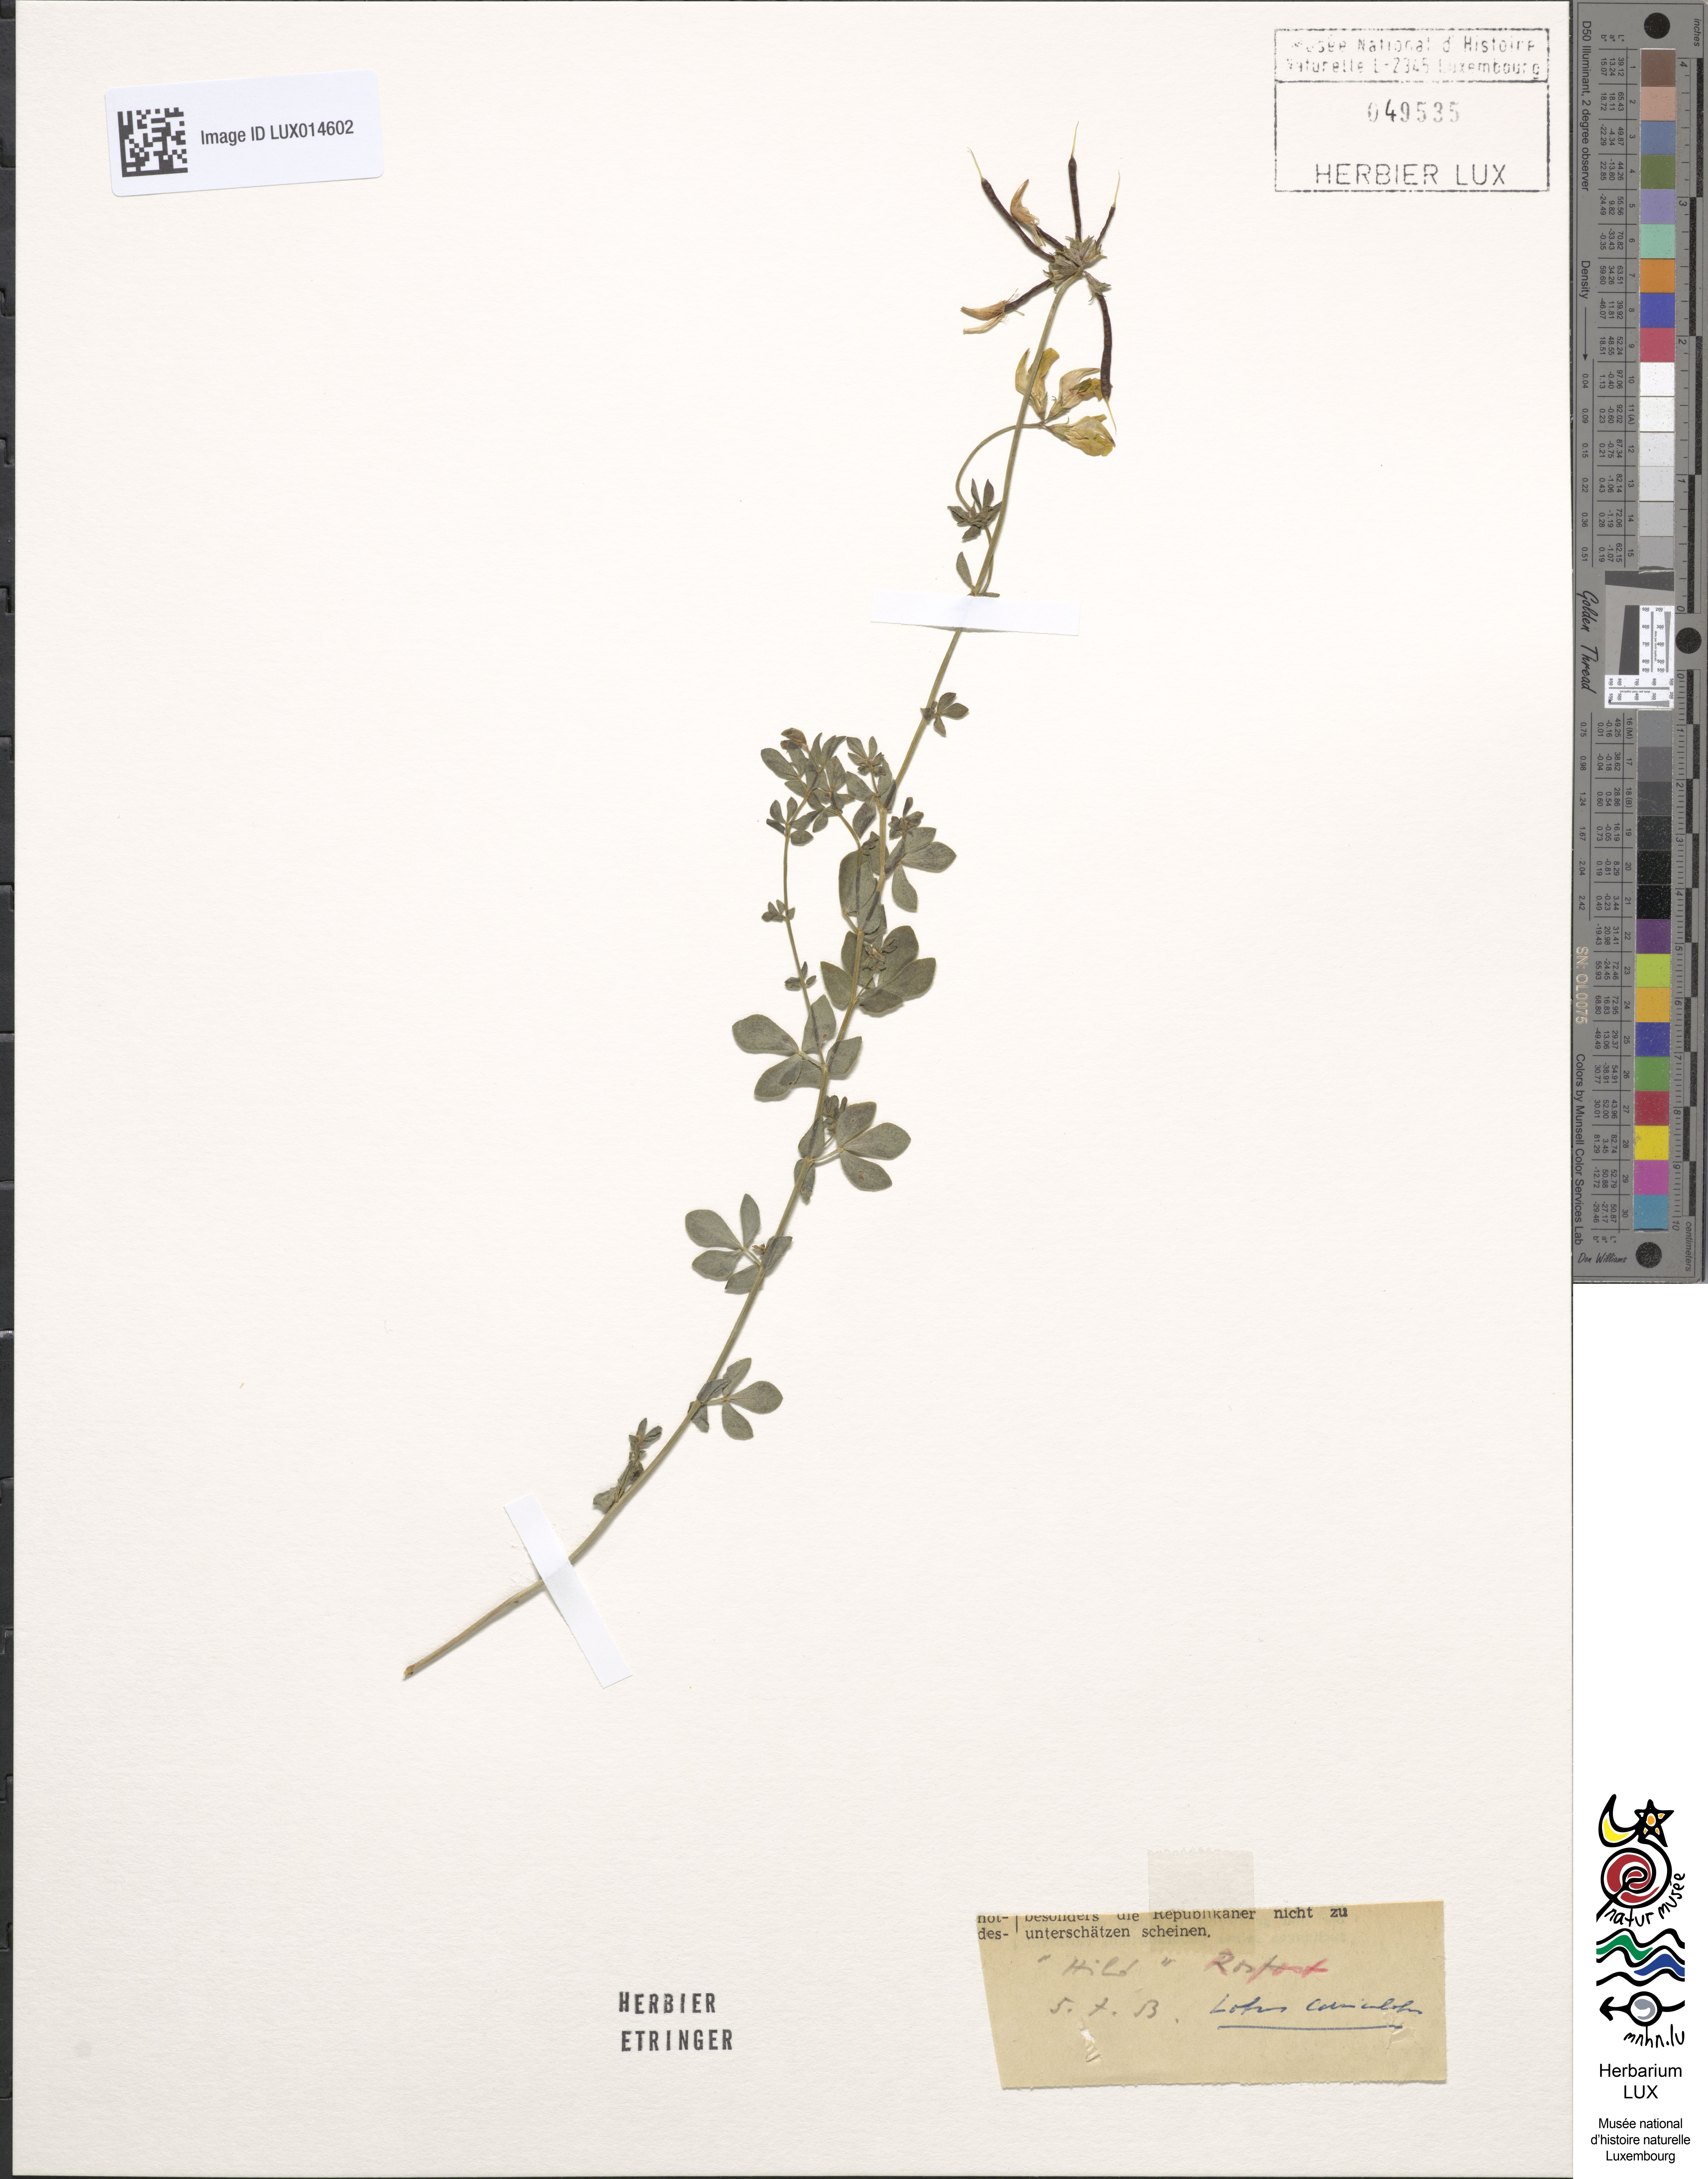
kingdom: Plantae
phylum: Tracheophyta
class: Magnoliopsida
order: Fabales
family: Fabaceae
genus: Lotus
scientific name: Lotus corniculatus
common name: Common bird's-foot-trefoil
